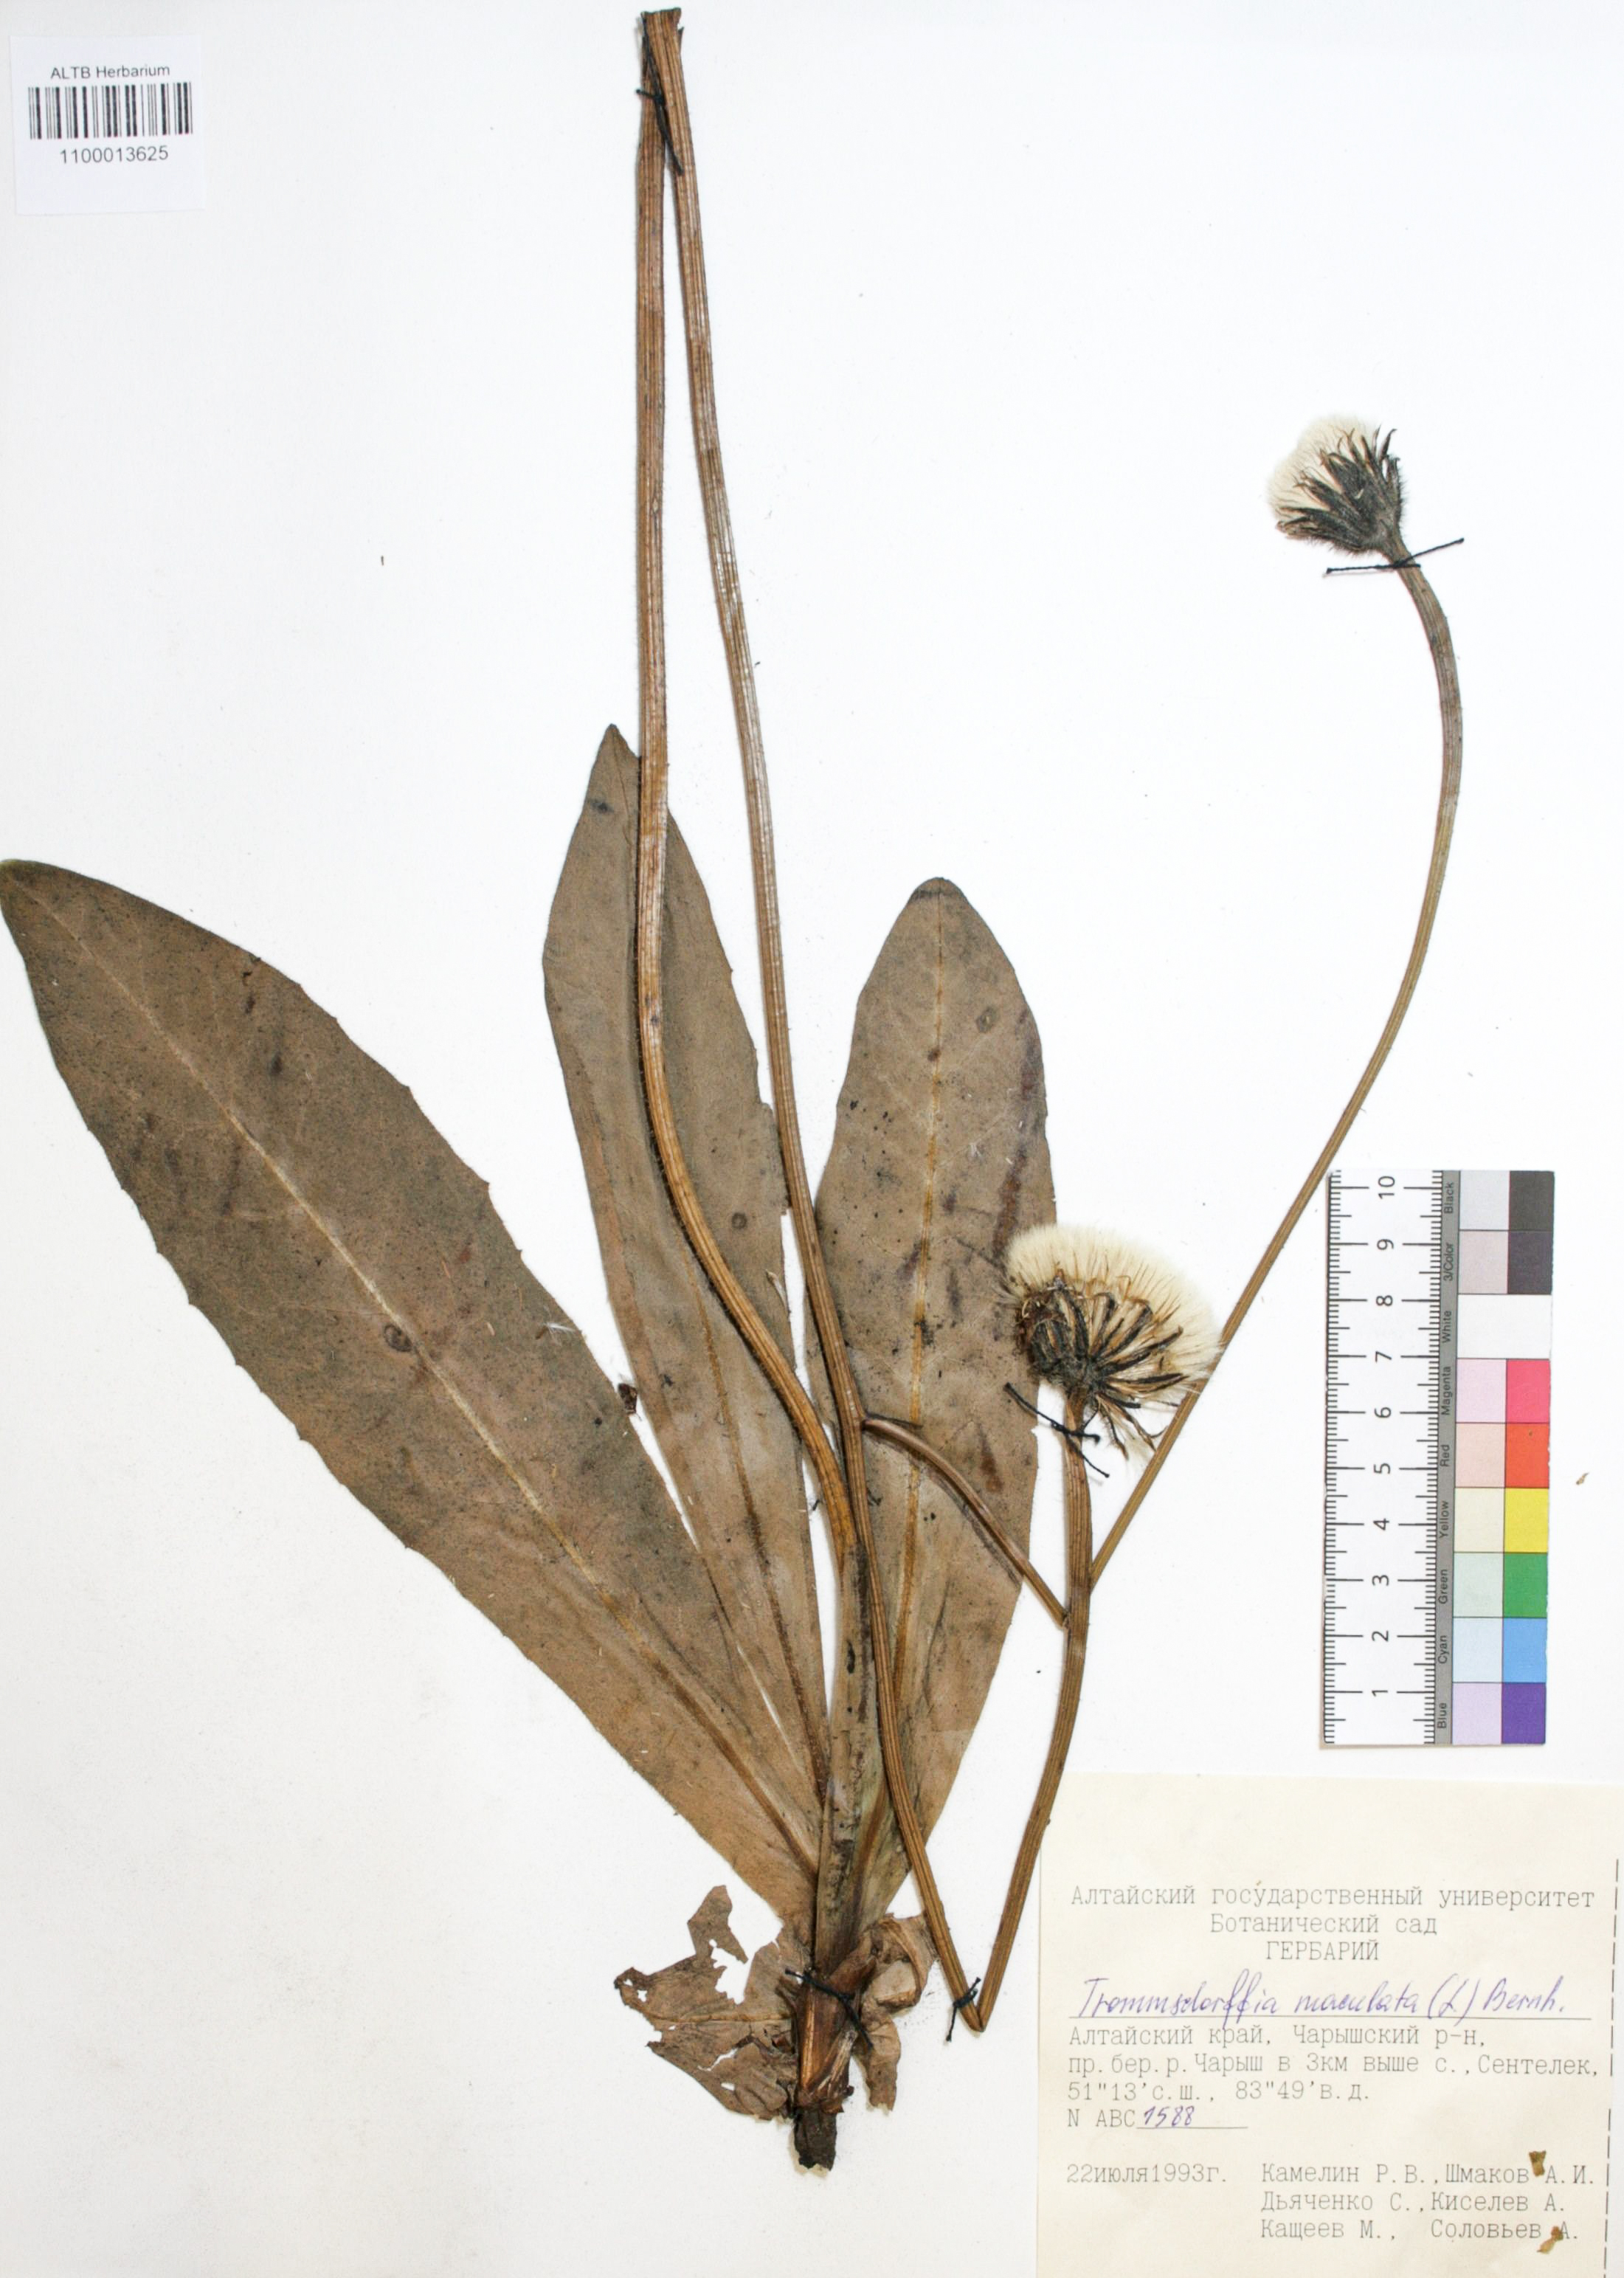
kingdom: Plantae
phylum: Tracheophyta
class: Magnoliopsida
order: Asterales
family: Asteraceae
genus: Trommsdorffia
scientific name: Trommsdorffia maculata
